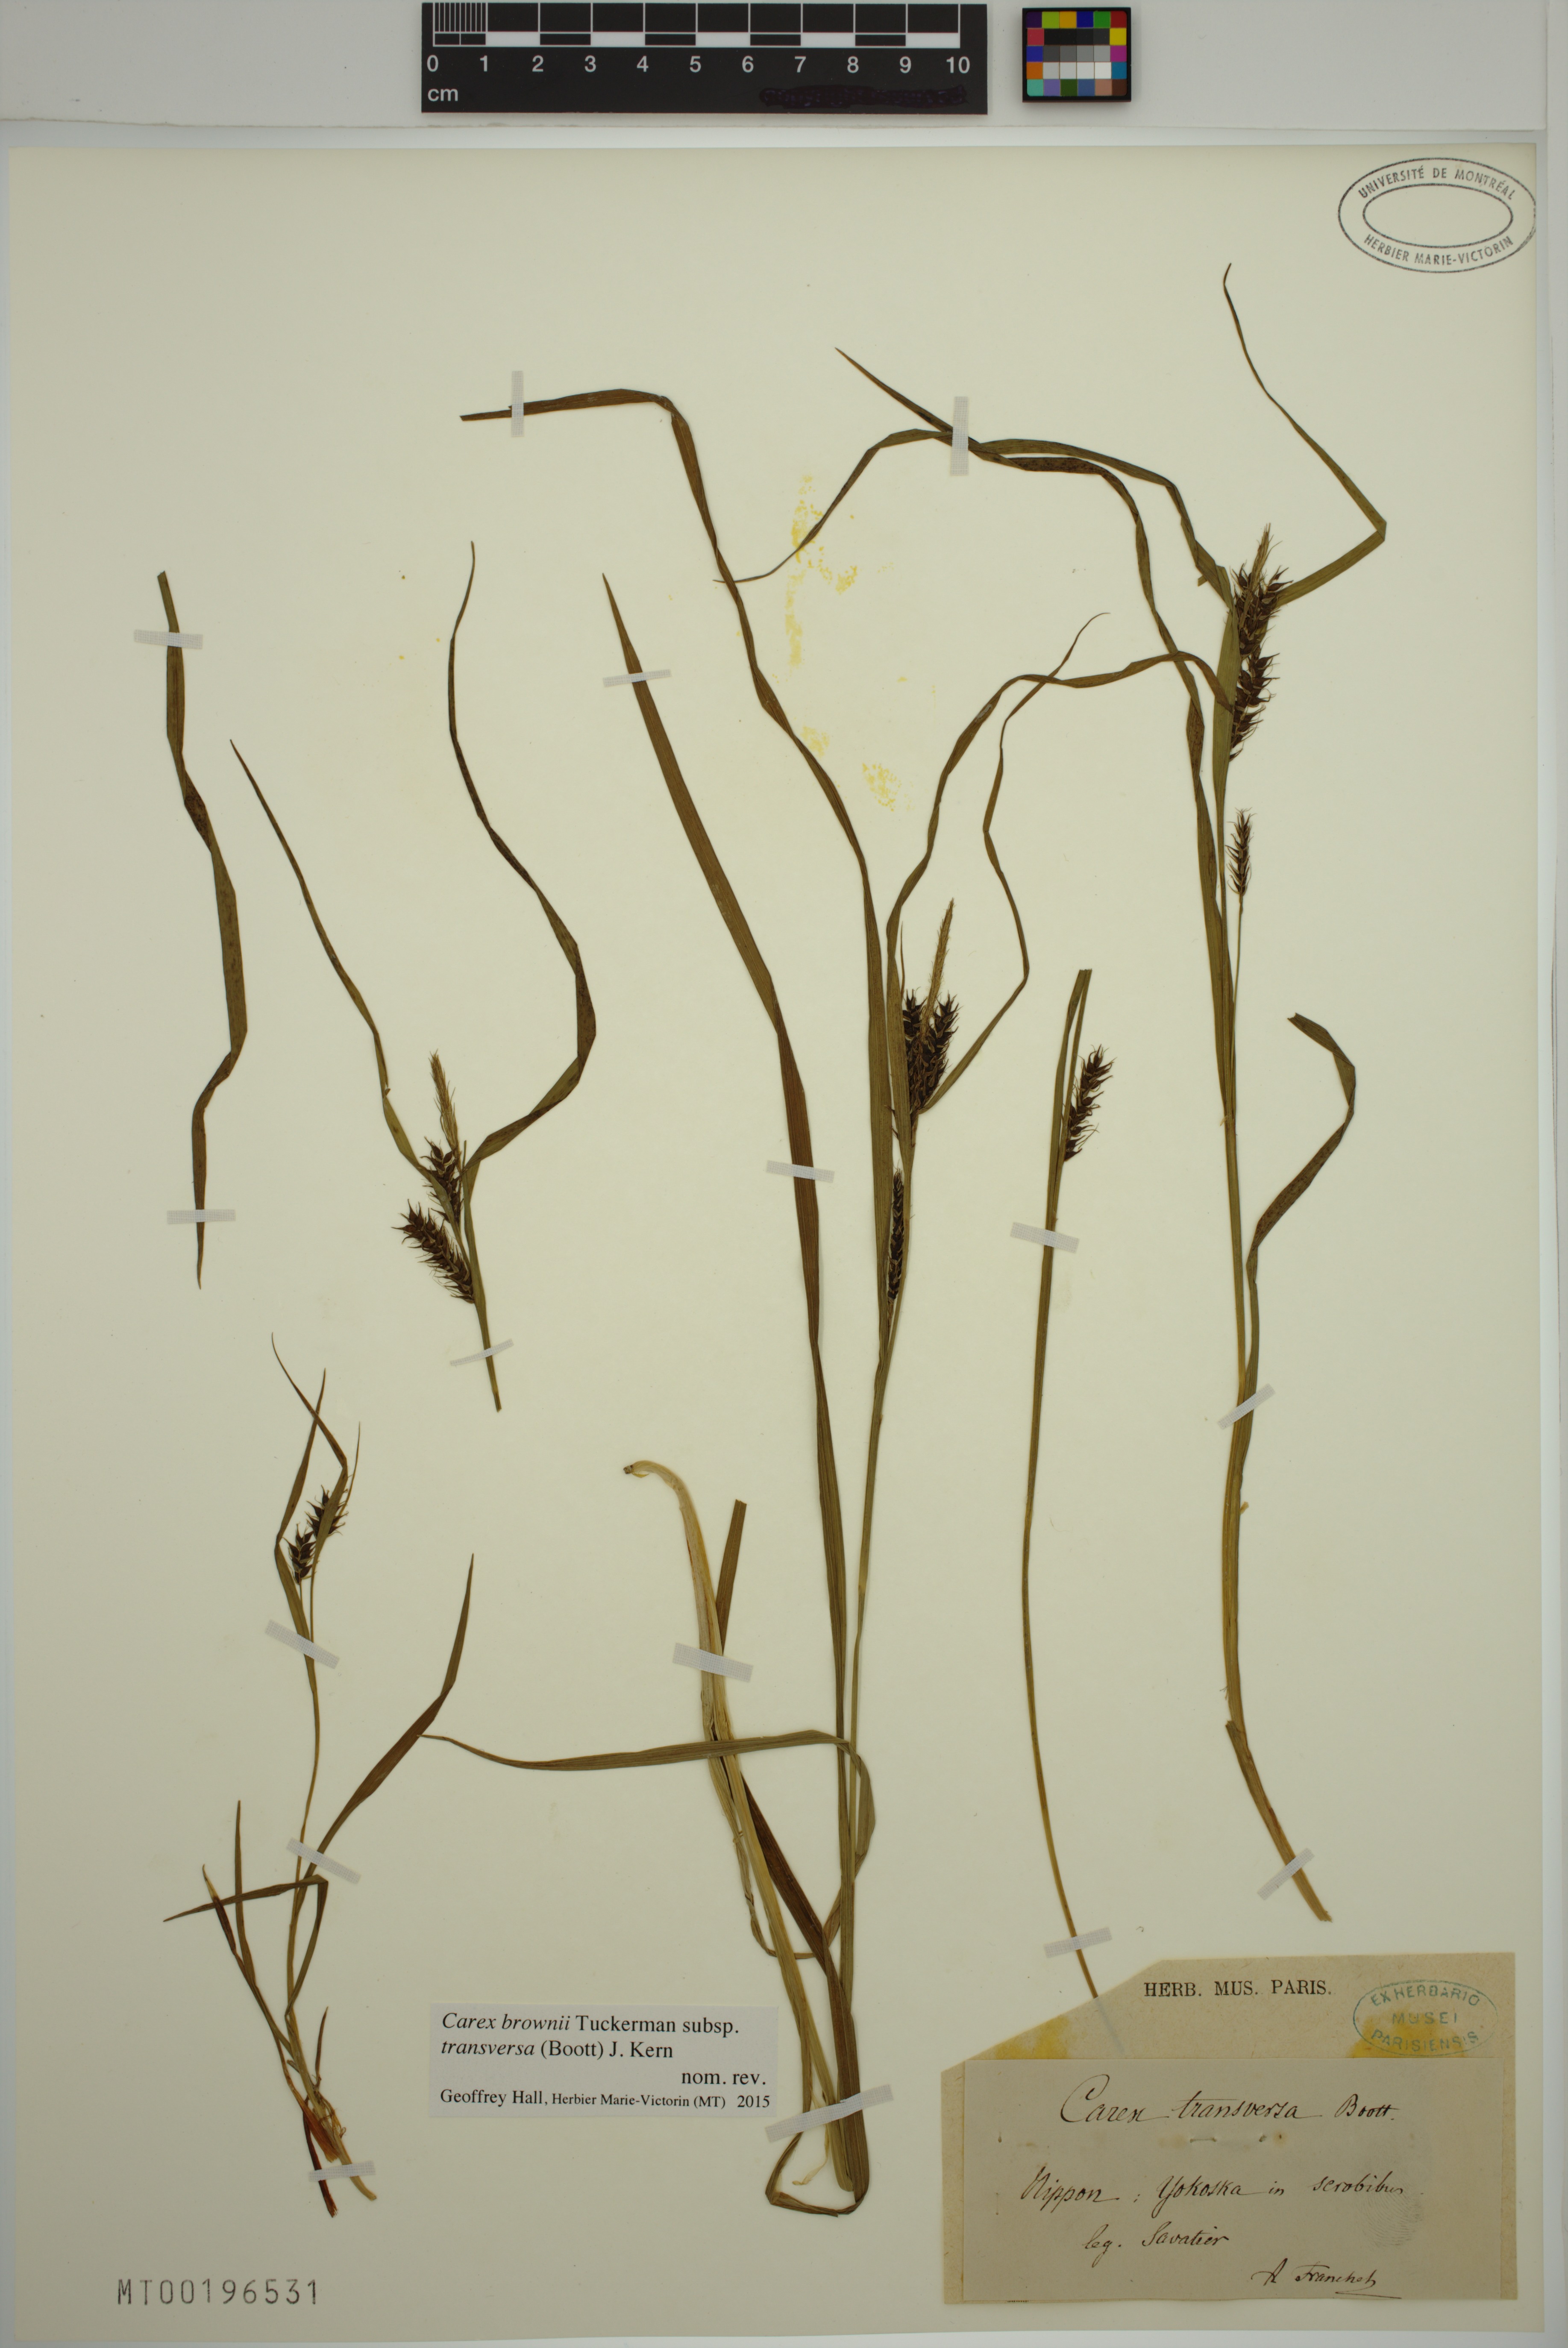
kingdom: Plantae
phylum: Tracheophyta
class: Liliopsida
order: Poales
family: Cyperaceae
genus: Carex
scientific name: Carex brownii
